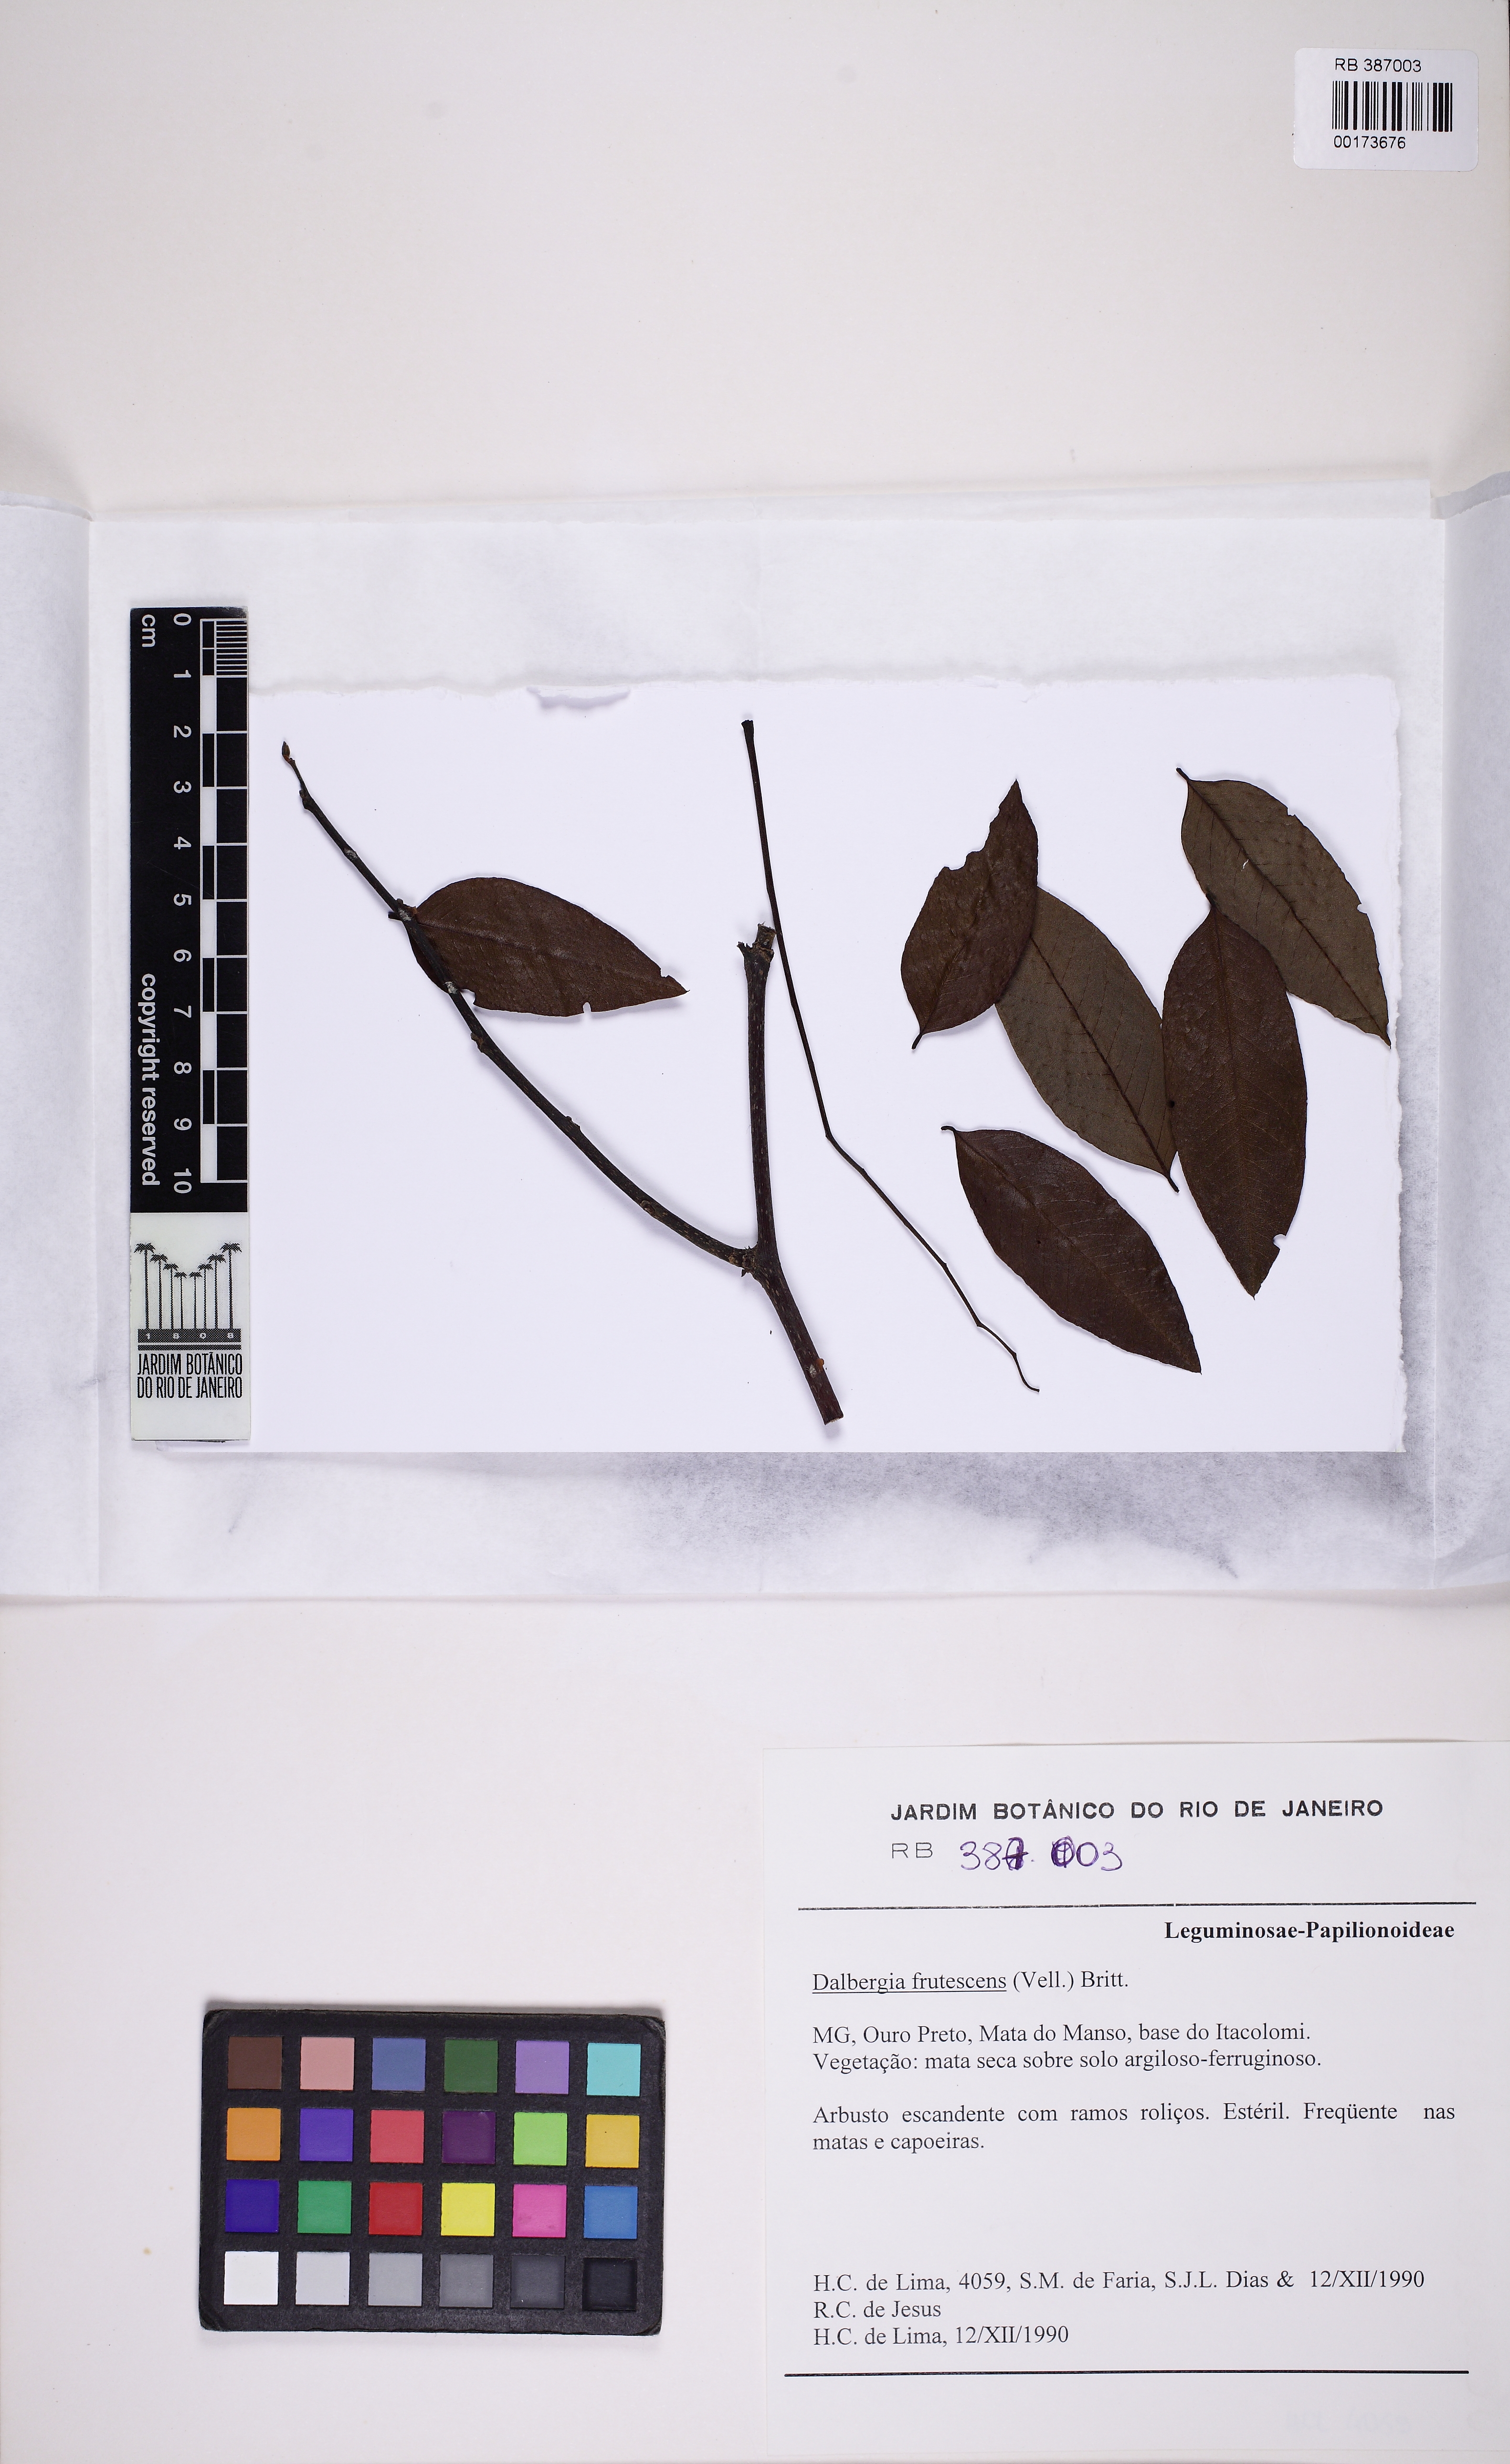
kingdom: Plantae
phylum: Tracheophyta
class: Magnoliopsida
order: Fabales
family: Fabaceae
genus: Dalbergia
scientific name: Dalbergia frutescens
